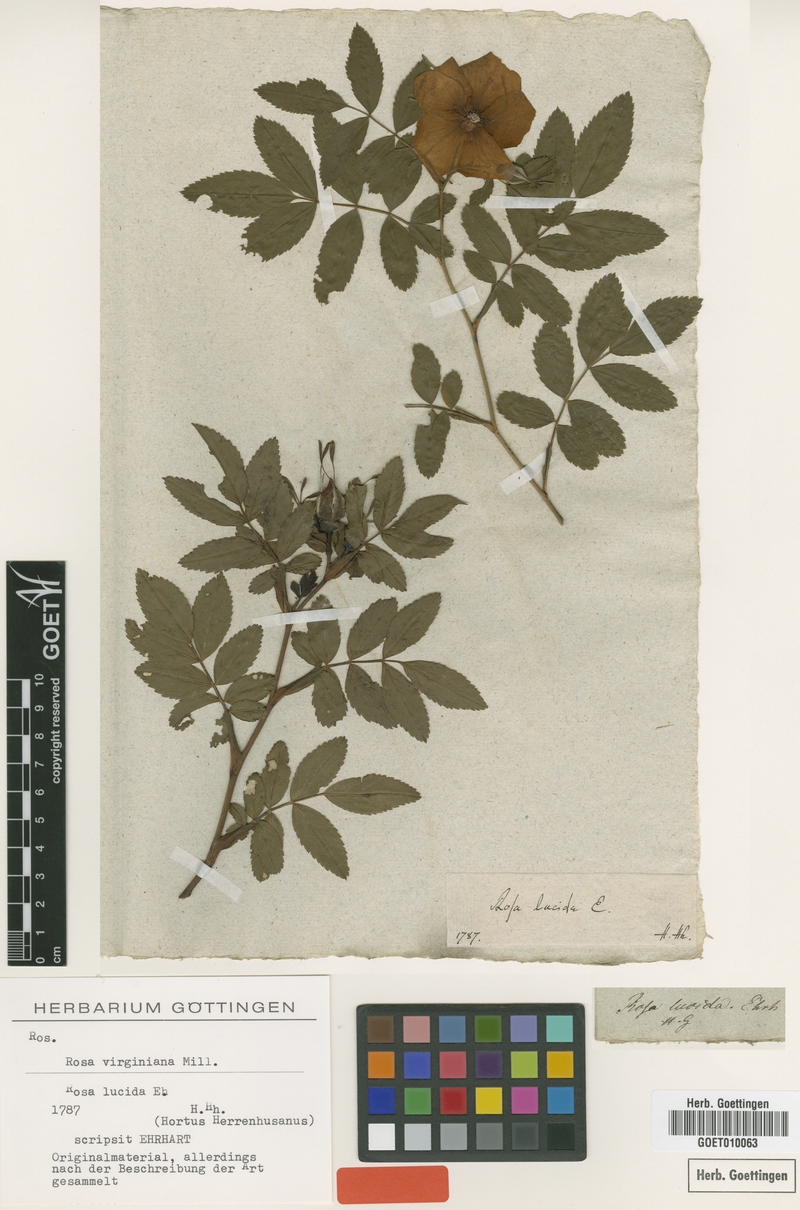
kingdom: Plantae
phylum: Tracheophyta
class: Magnoliopsida
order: Rosales
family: Rosaceae
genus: Rosa
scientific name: Rosa carolina
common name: Pasture rose
